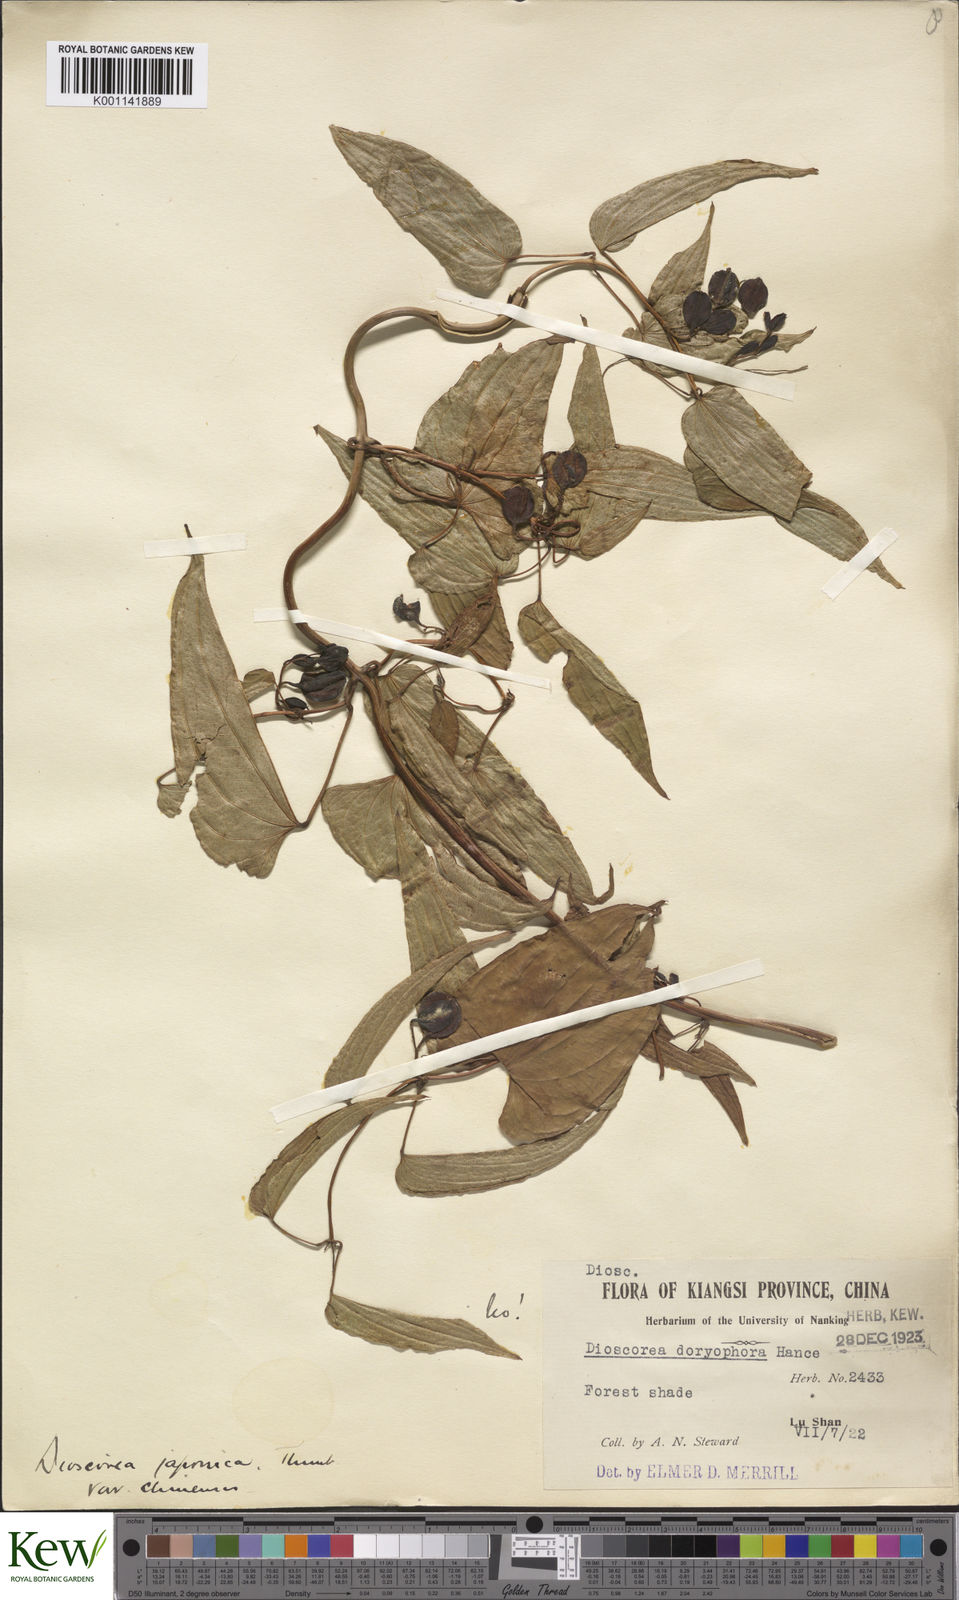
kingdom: Plantae
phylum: Tracheophyta
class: Liliopsida
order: Dioscoreales
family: Dioscoreaceae
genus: Dioscorea
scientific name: Dioscorea japonica
